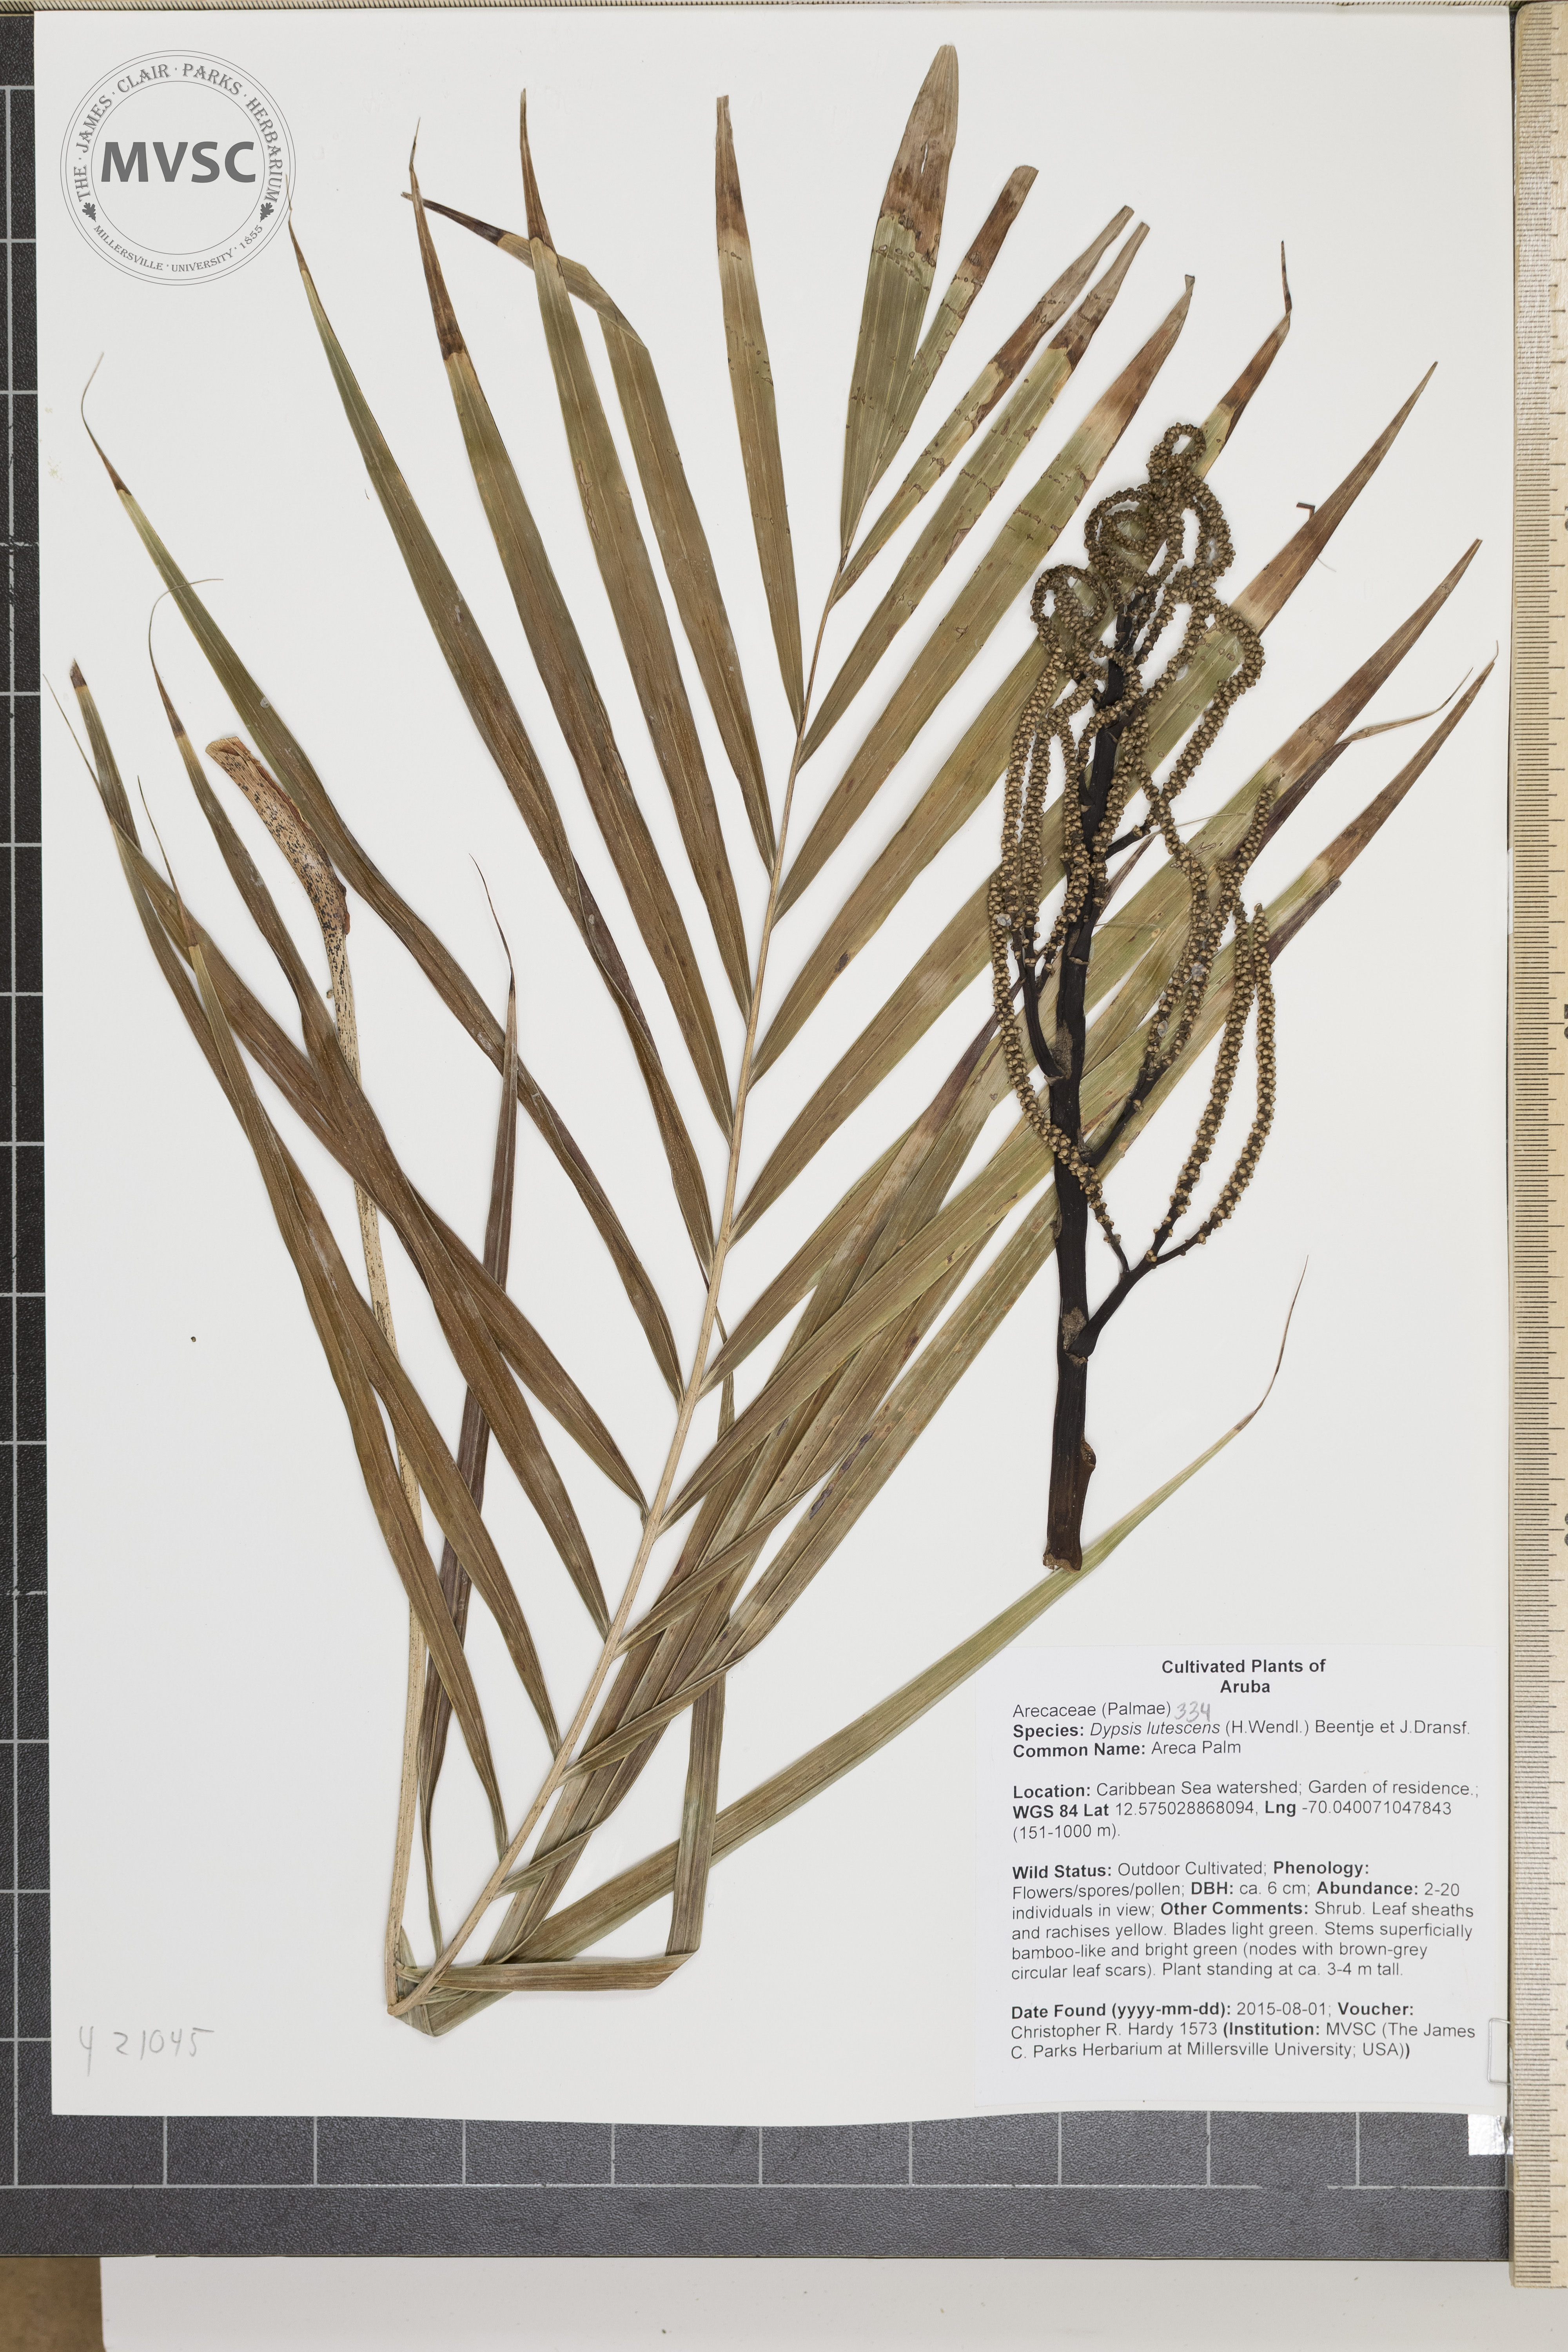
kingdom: Plantae
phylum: Tracheophyta
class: Liliopsida
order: Arecales
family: Arecaceae
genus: Dypsis
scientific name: Dypsis lutescens
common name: Areca Palm
